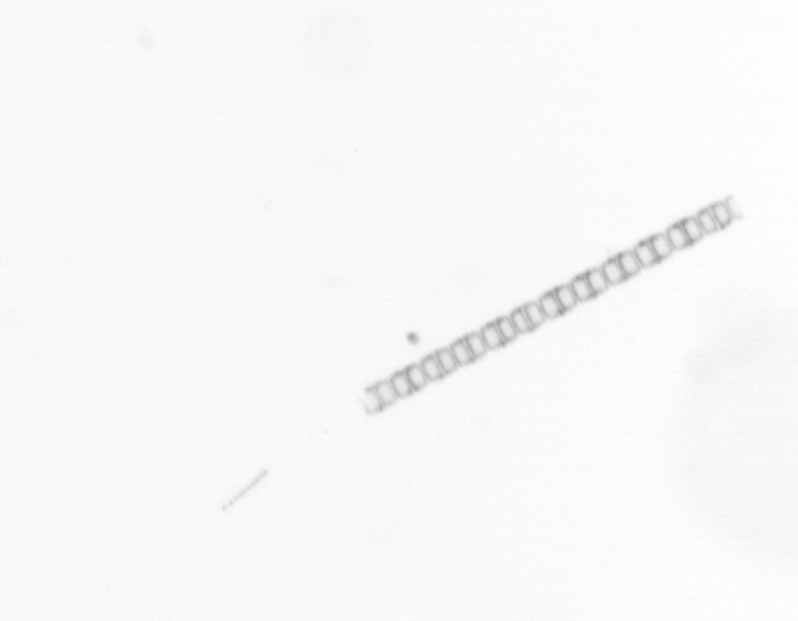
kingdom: Chromista
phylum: Ochrophyta
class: Bacillariophyceae
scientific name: Bacillariophyceae
